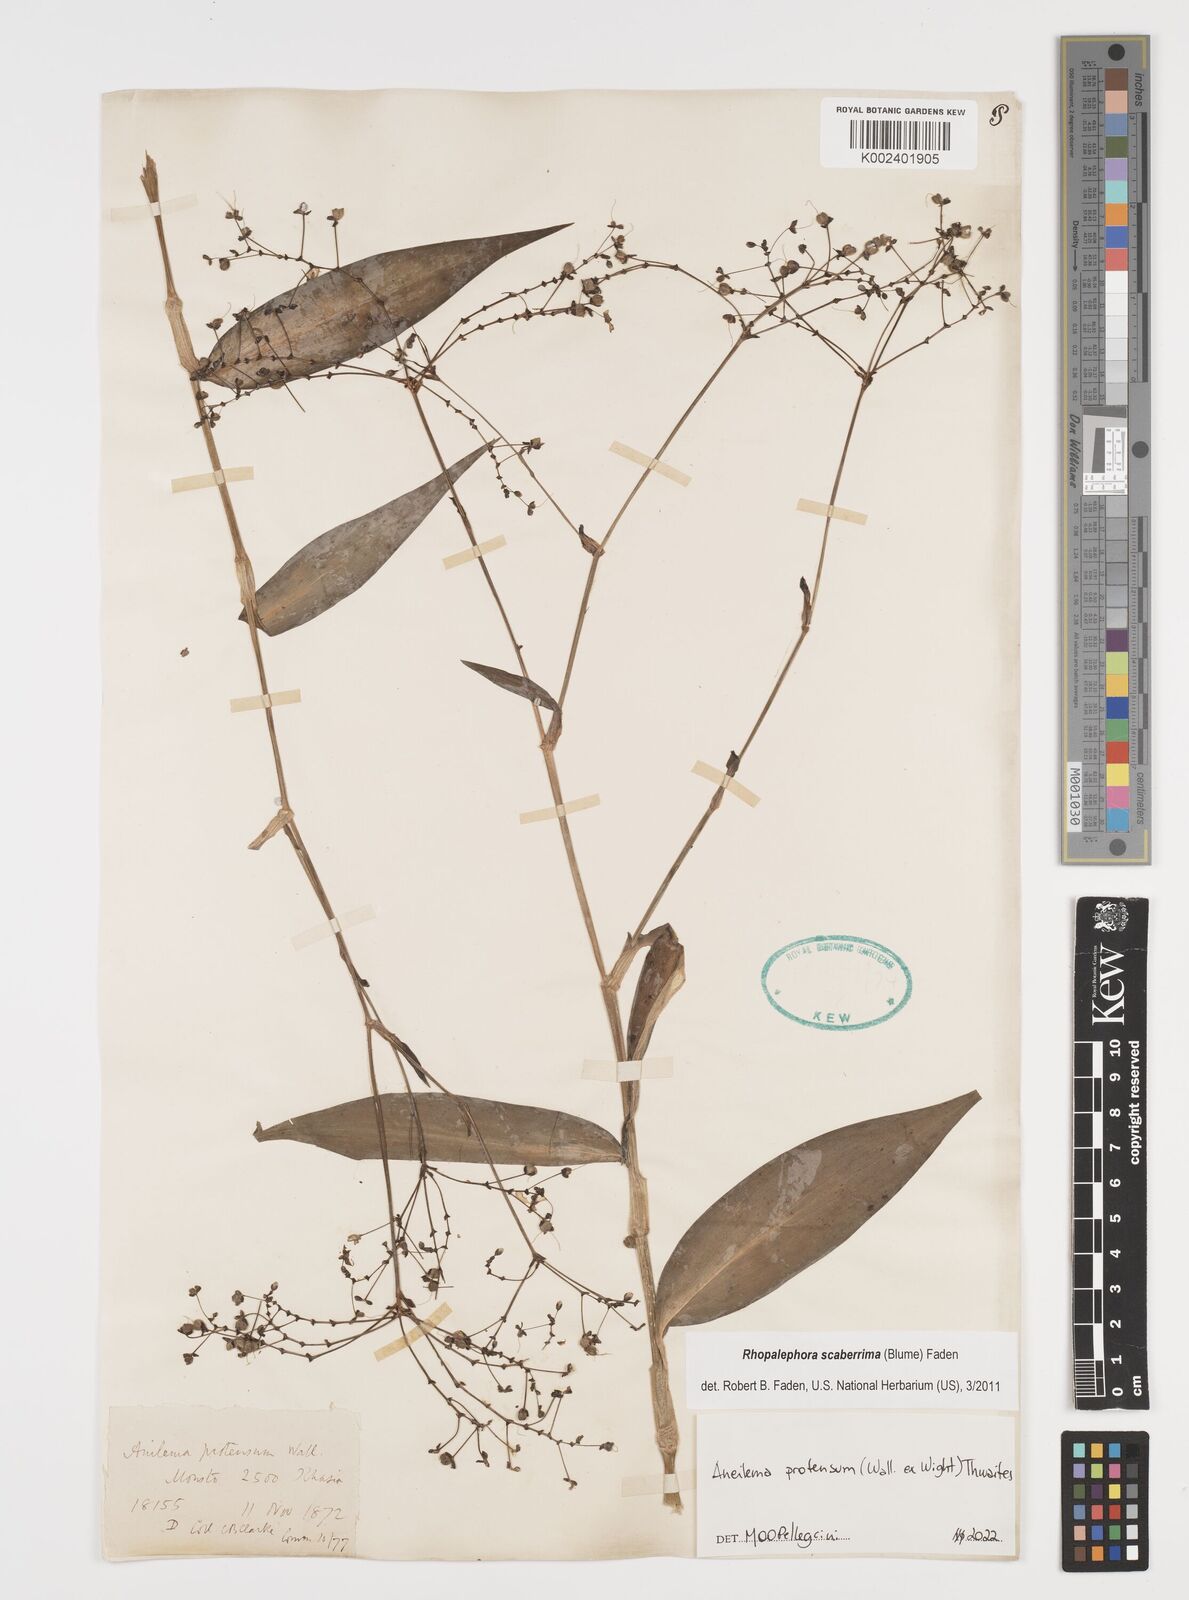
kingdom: Plantae
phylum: Tracheophyta
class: Liliopsida
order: Commelinales
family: Commelinaceae
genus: Rhopalephora
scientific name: Rhopalephora
